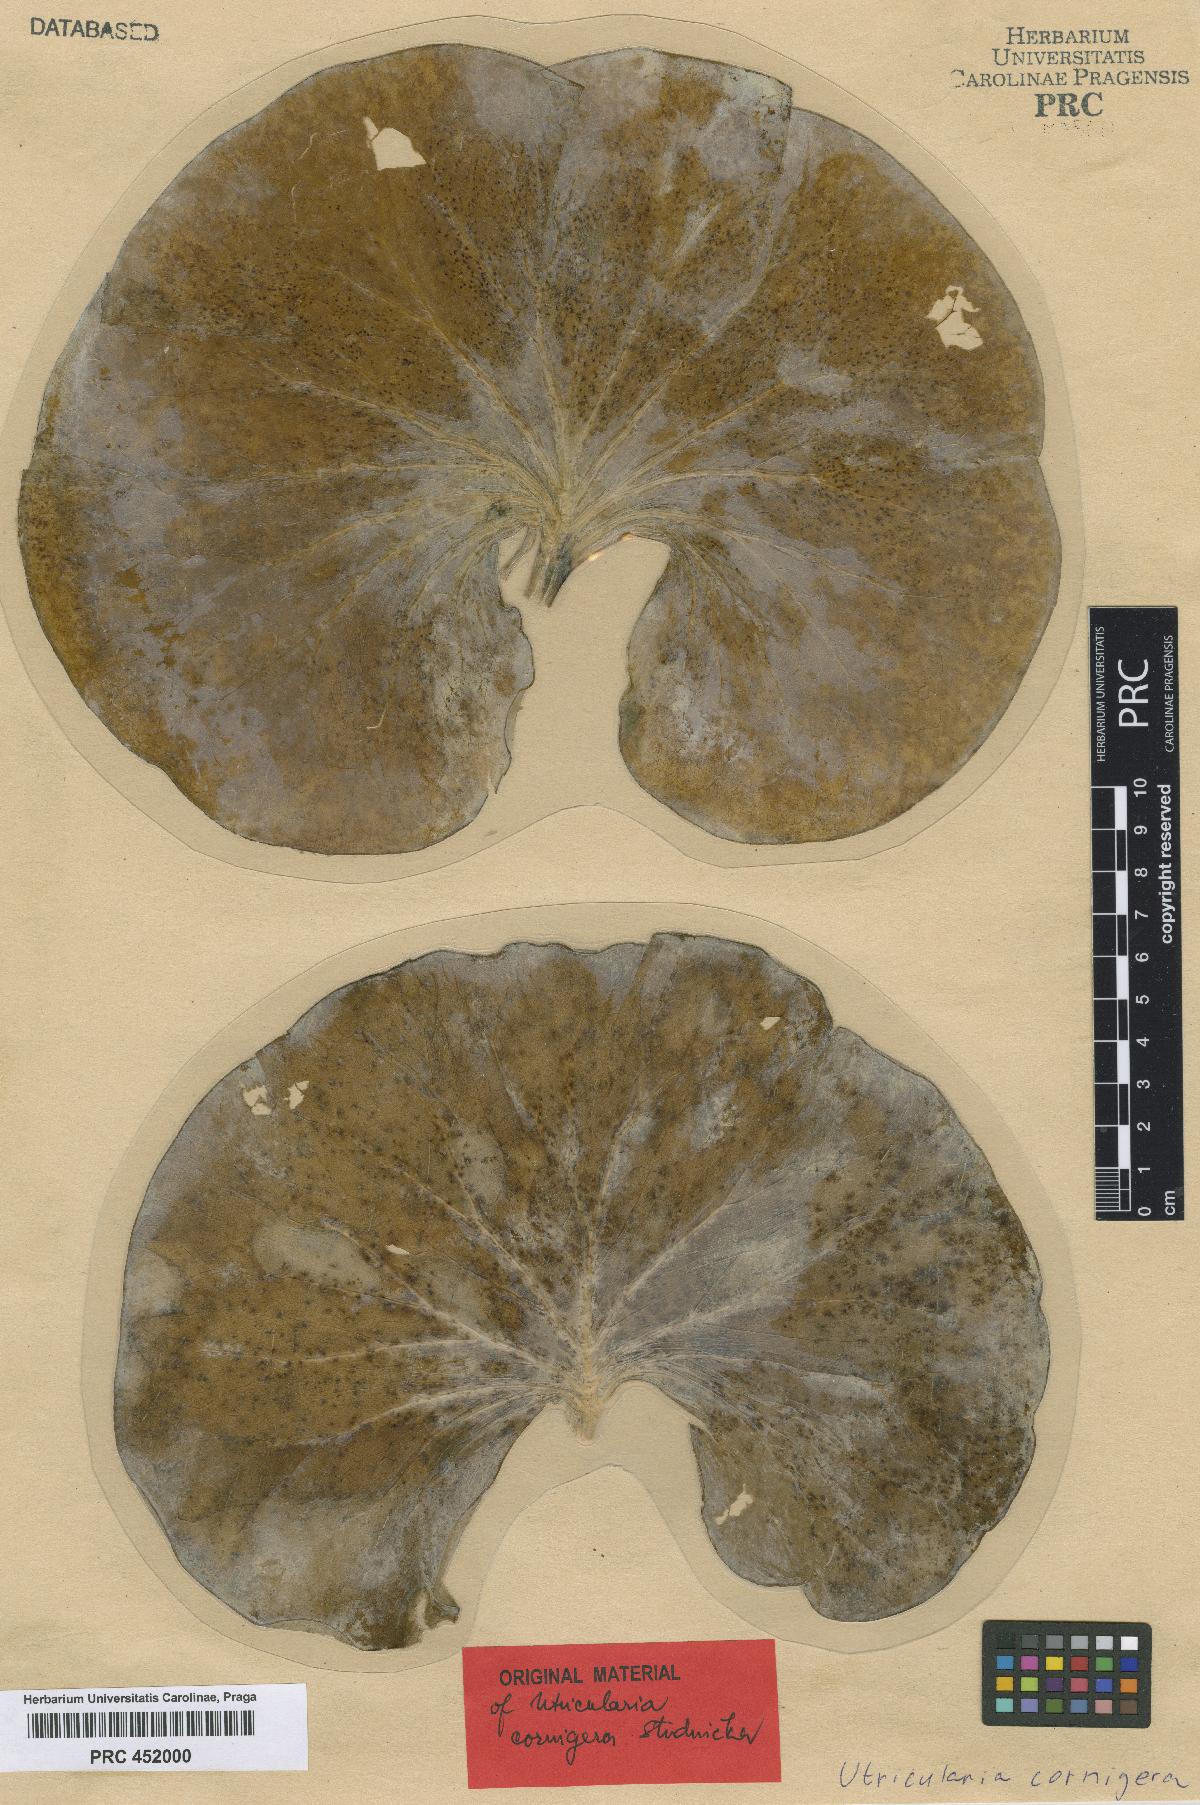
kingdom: Plantae
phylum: Tracheophyta
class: Magnoliopsida
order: Lamiales
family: Lentibulariaceae
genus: Utricularia
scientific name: Utricularia cornigera
